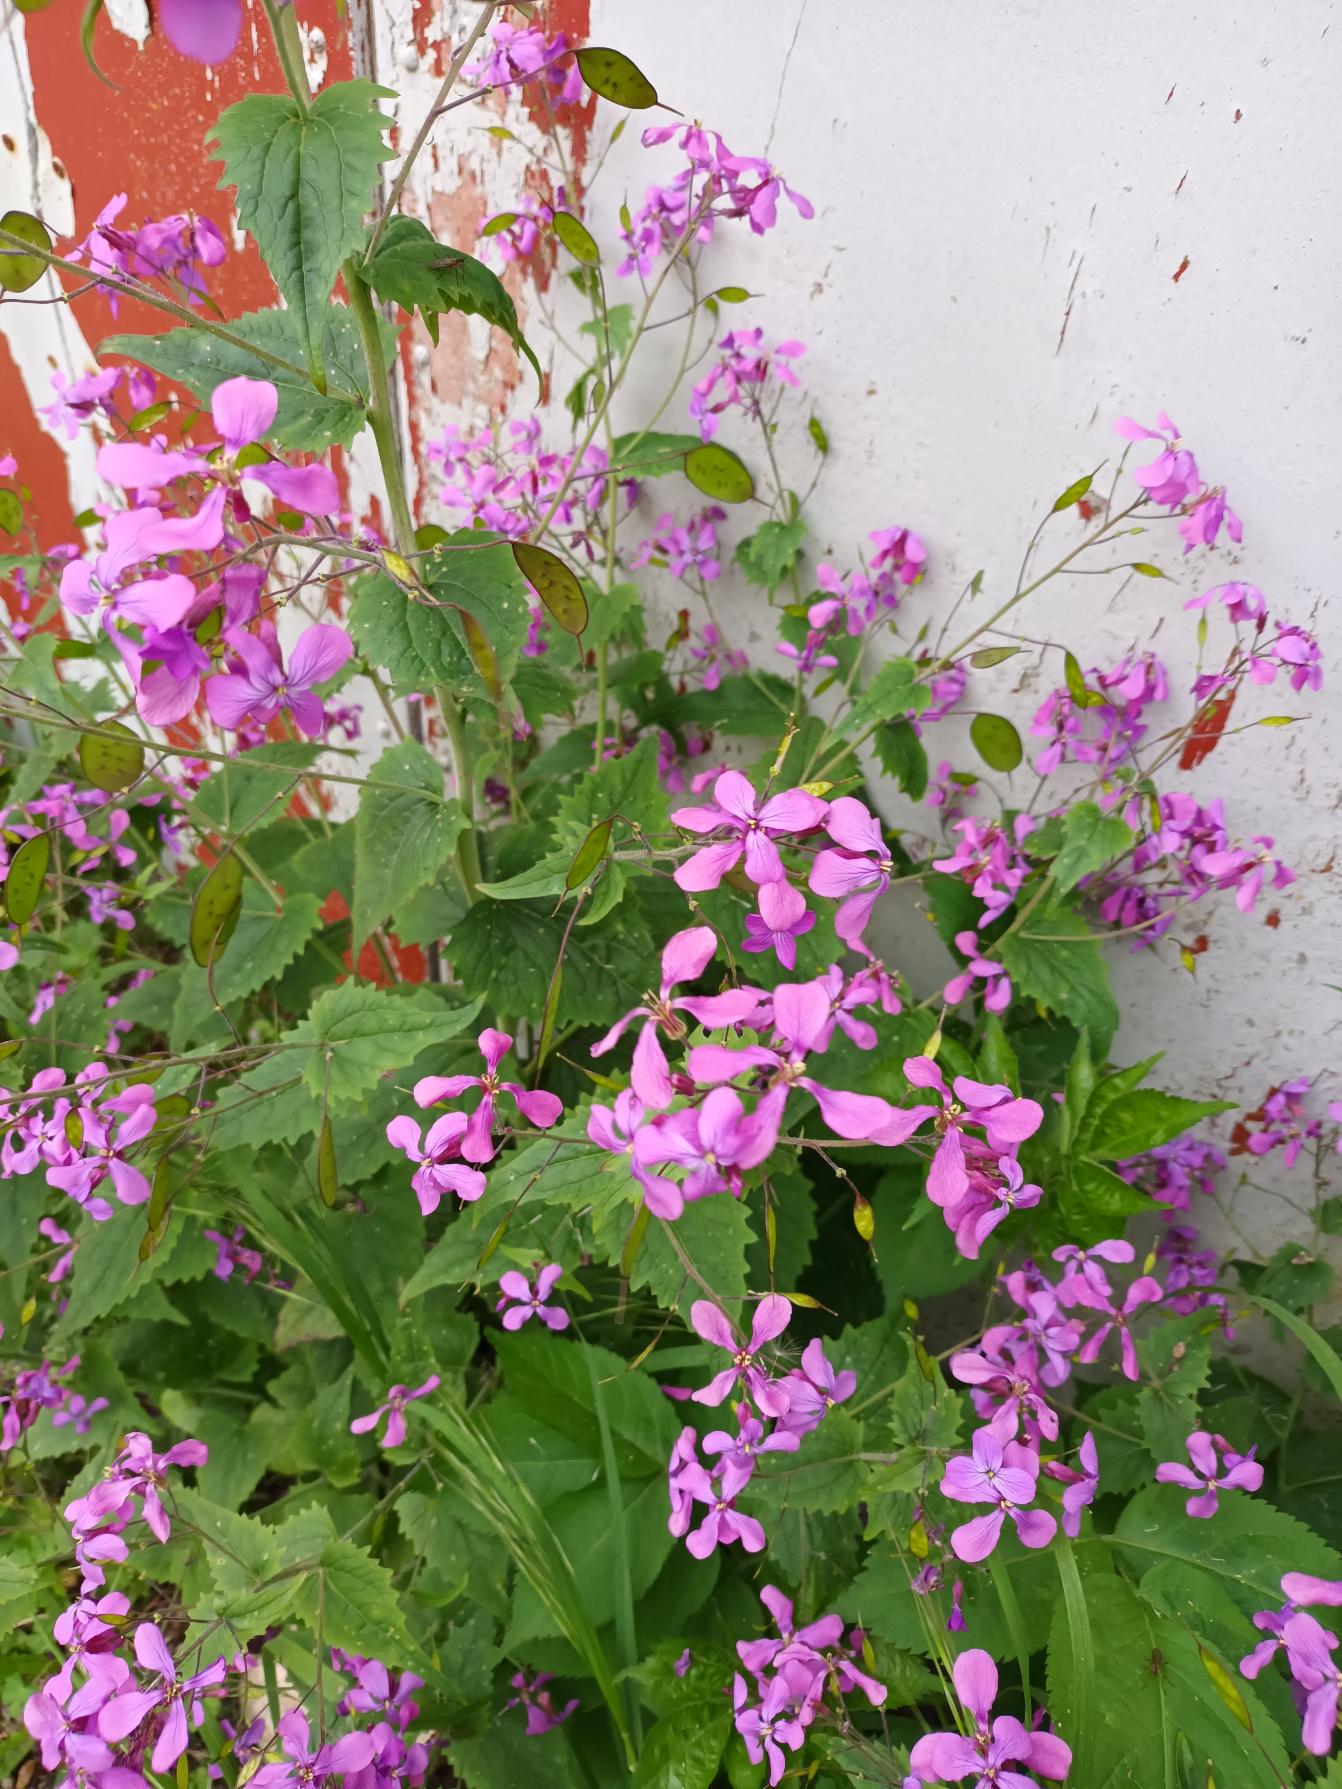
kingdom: Plantae
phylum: Tracheophyta
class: Magnoliopsida
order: Brassicales
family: Brassicaceae
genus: Lunaria
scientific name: Lunaria annua
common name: Judaspenge
